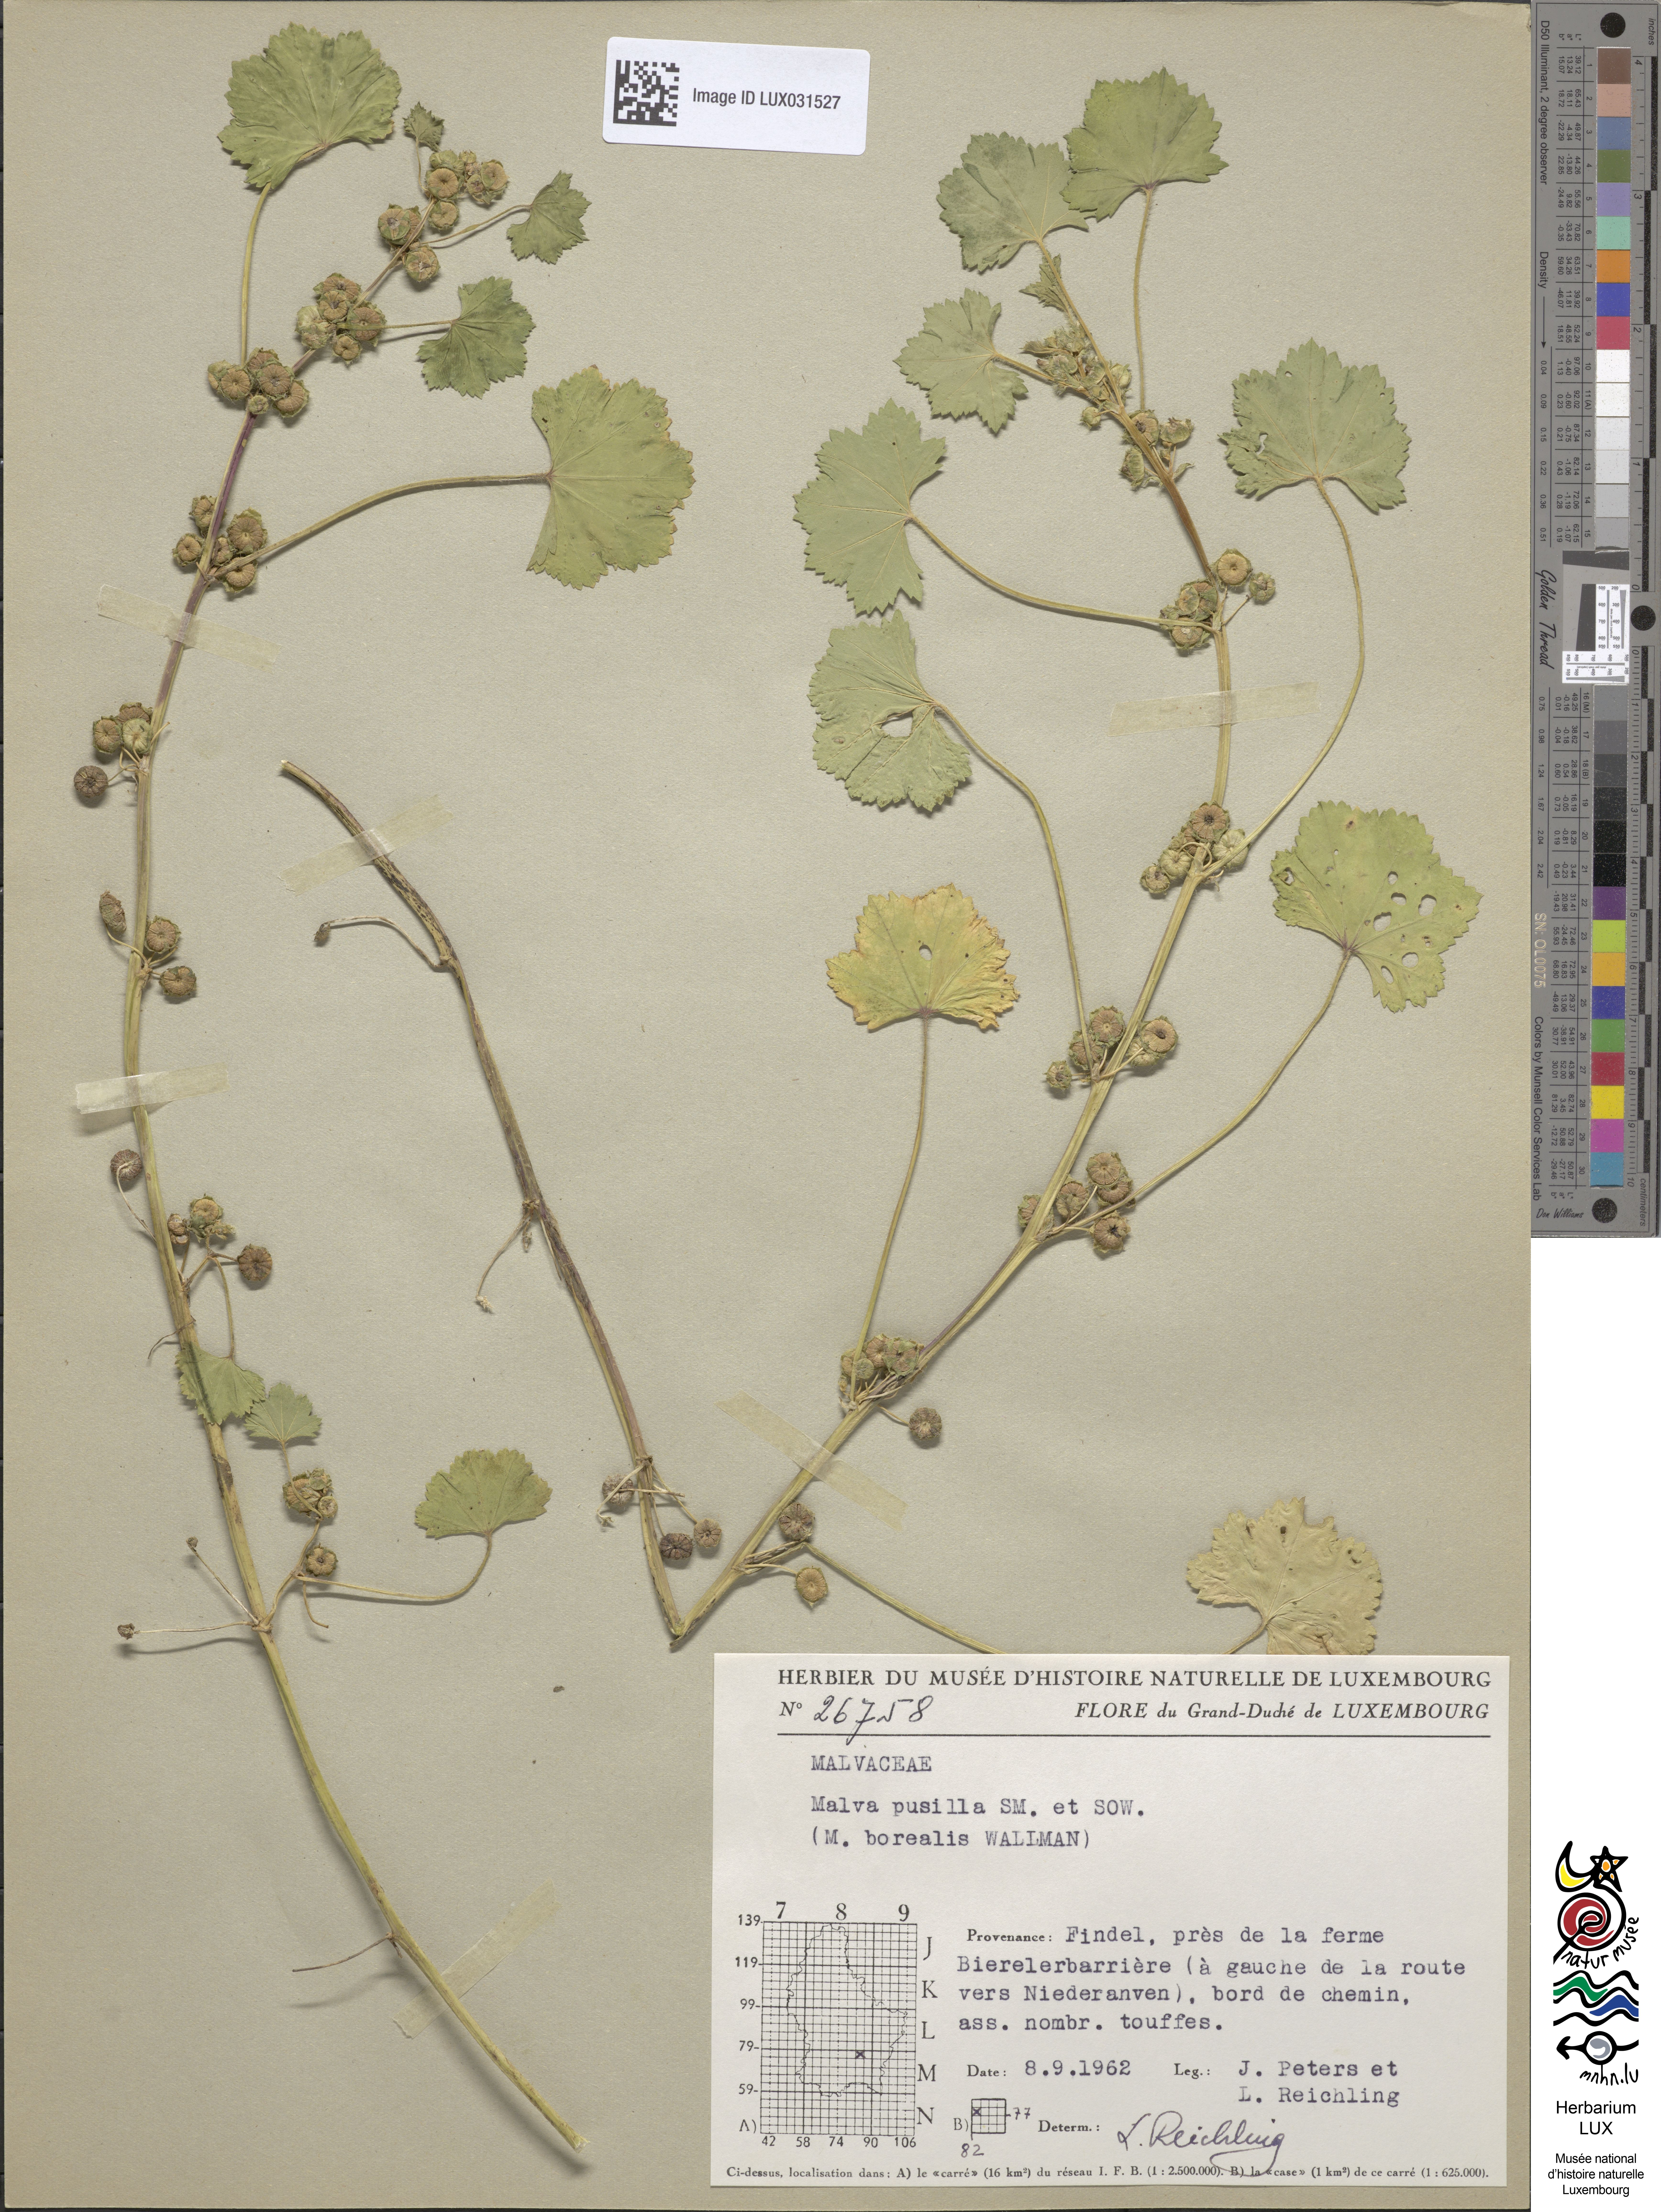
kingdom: Plantae
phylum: Tracheophyta
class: Magnoliopsida
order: Malvales
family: Malvaceae
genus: Malva
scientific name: Malva pusilla
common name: Small mallow
